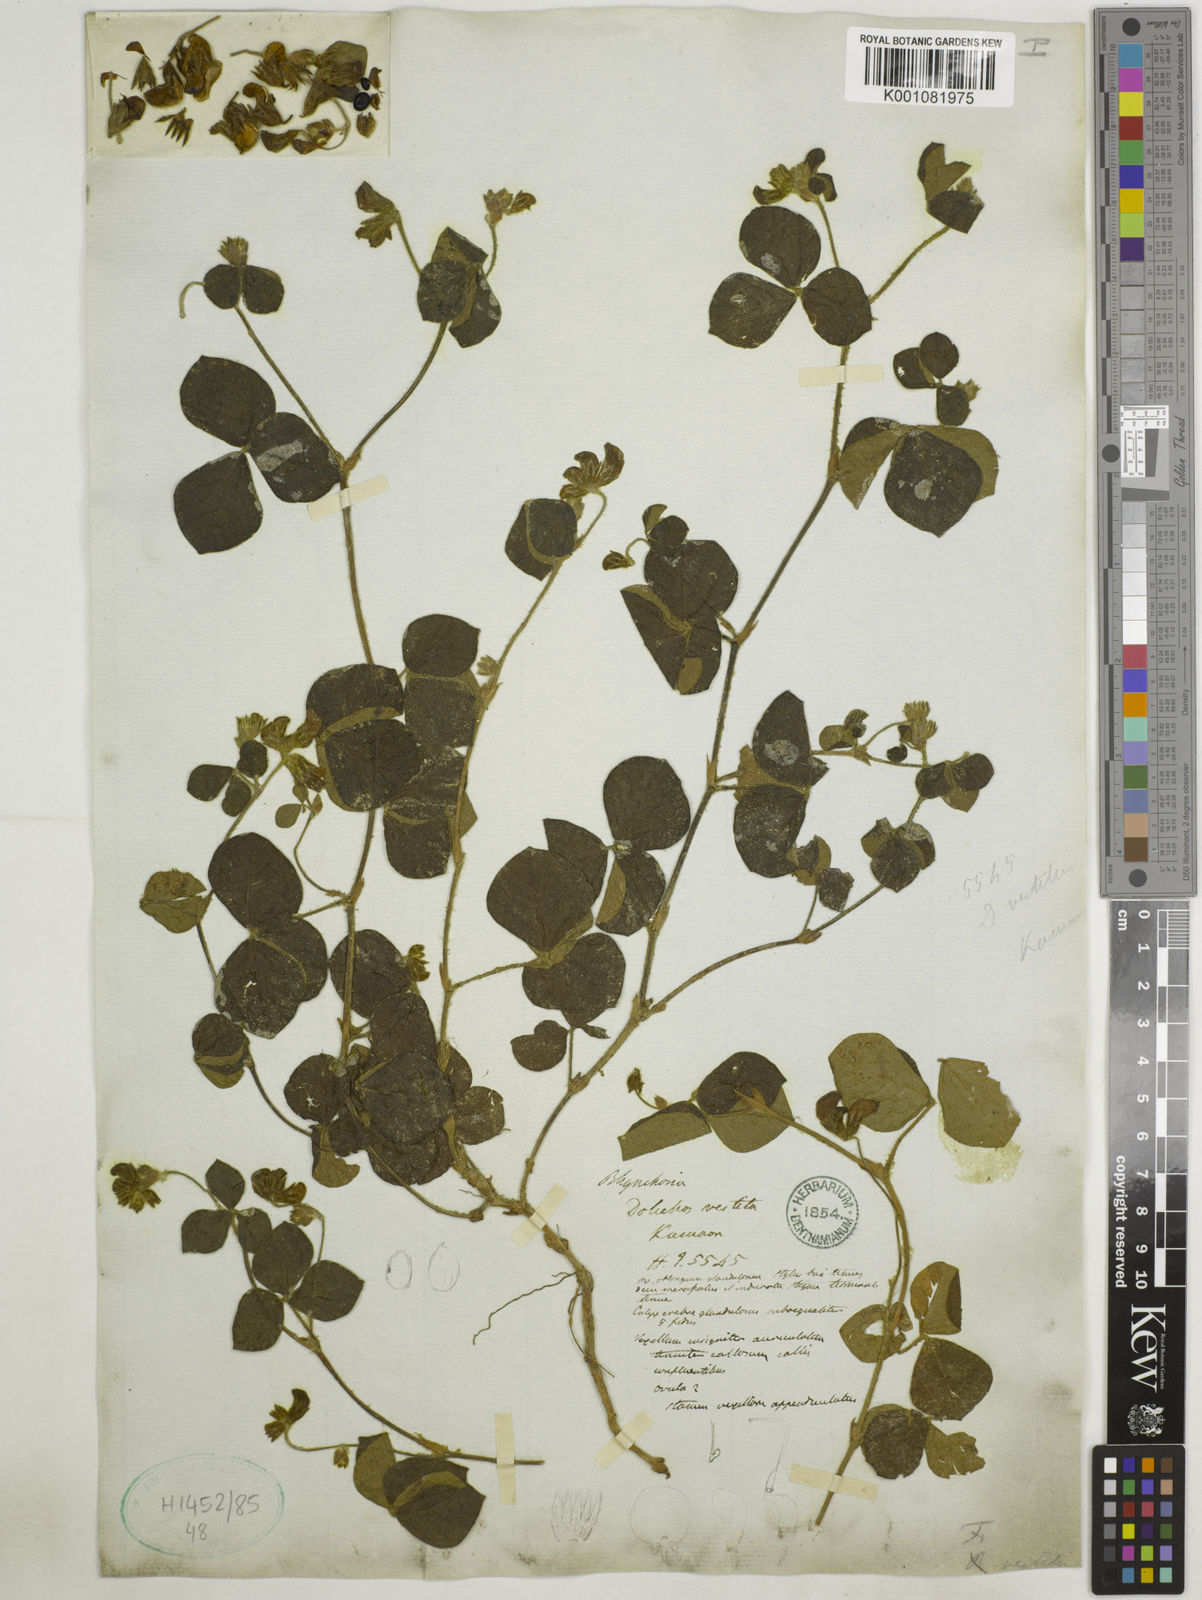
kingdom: Plantae
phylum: Tracheophyta
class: Magnoliopsida
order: Fabales
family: Fabaceae
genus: Flemingia
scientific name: Flemingia vestita
